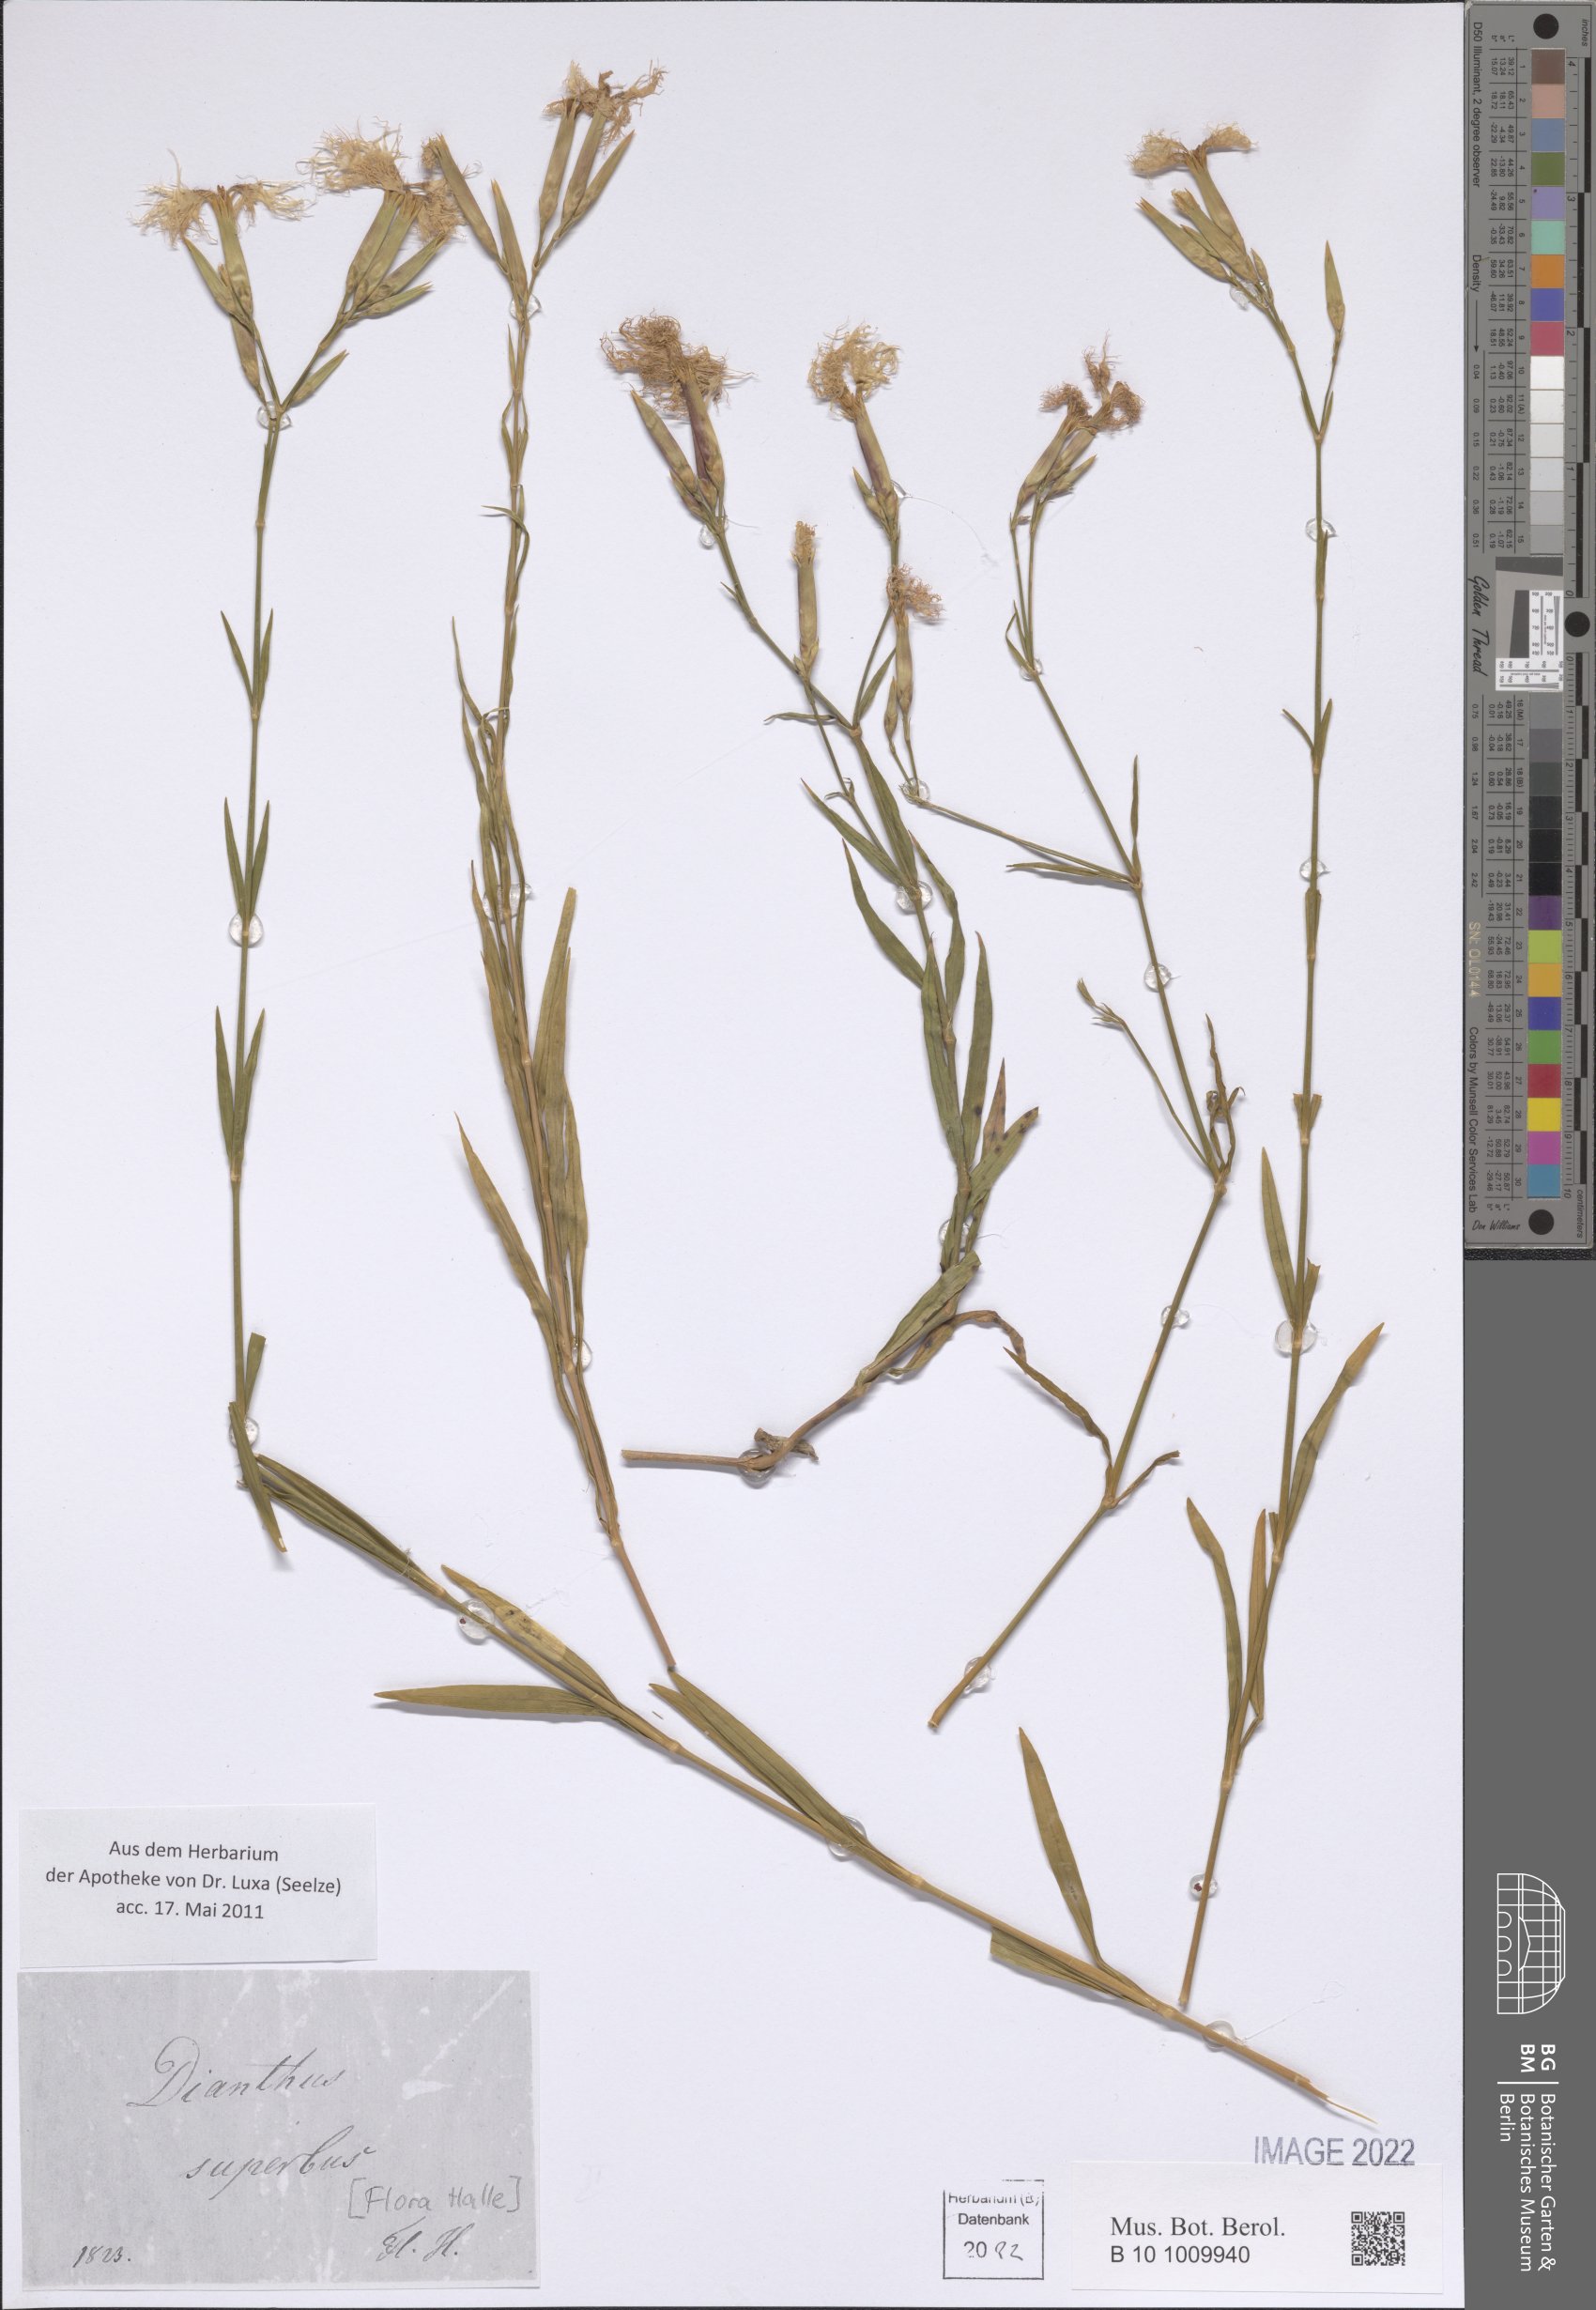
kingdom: Plantae
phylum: Tracheophyta
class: Magnoliopsida
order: Caryophyllales
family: Caryophyllaceae
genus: Dianthus
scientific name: Dianthus superbus
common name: Fringed pink
